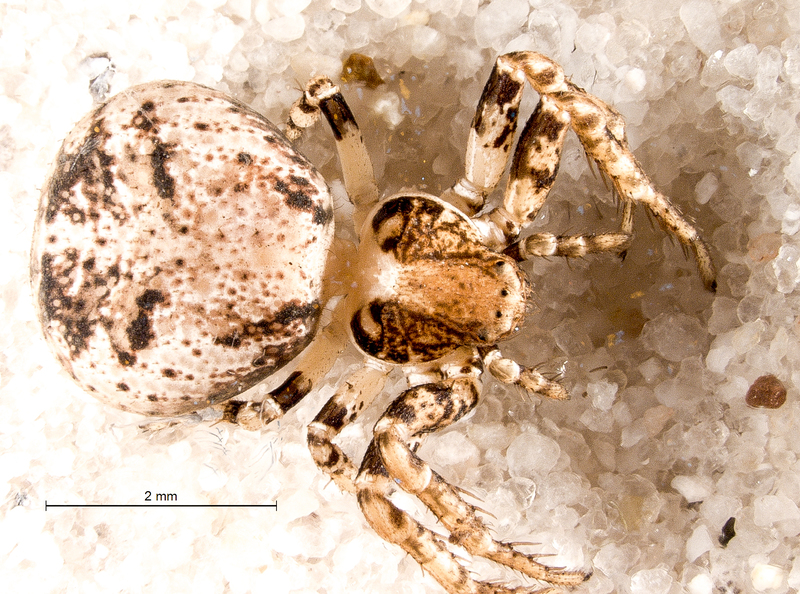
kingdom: Animalia
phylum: Arthropoda
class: Arachnida
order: Araneae
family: Thomisidae
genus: Ozyptila
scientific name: Ozyptila praticola
